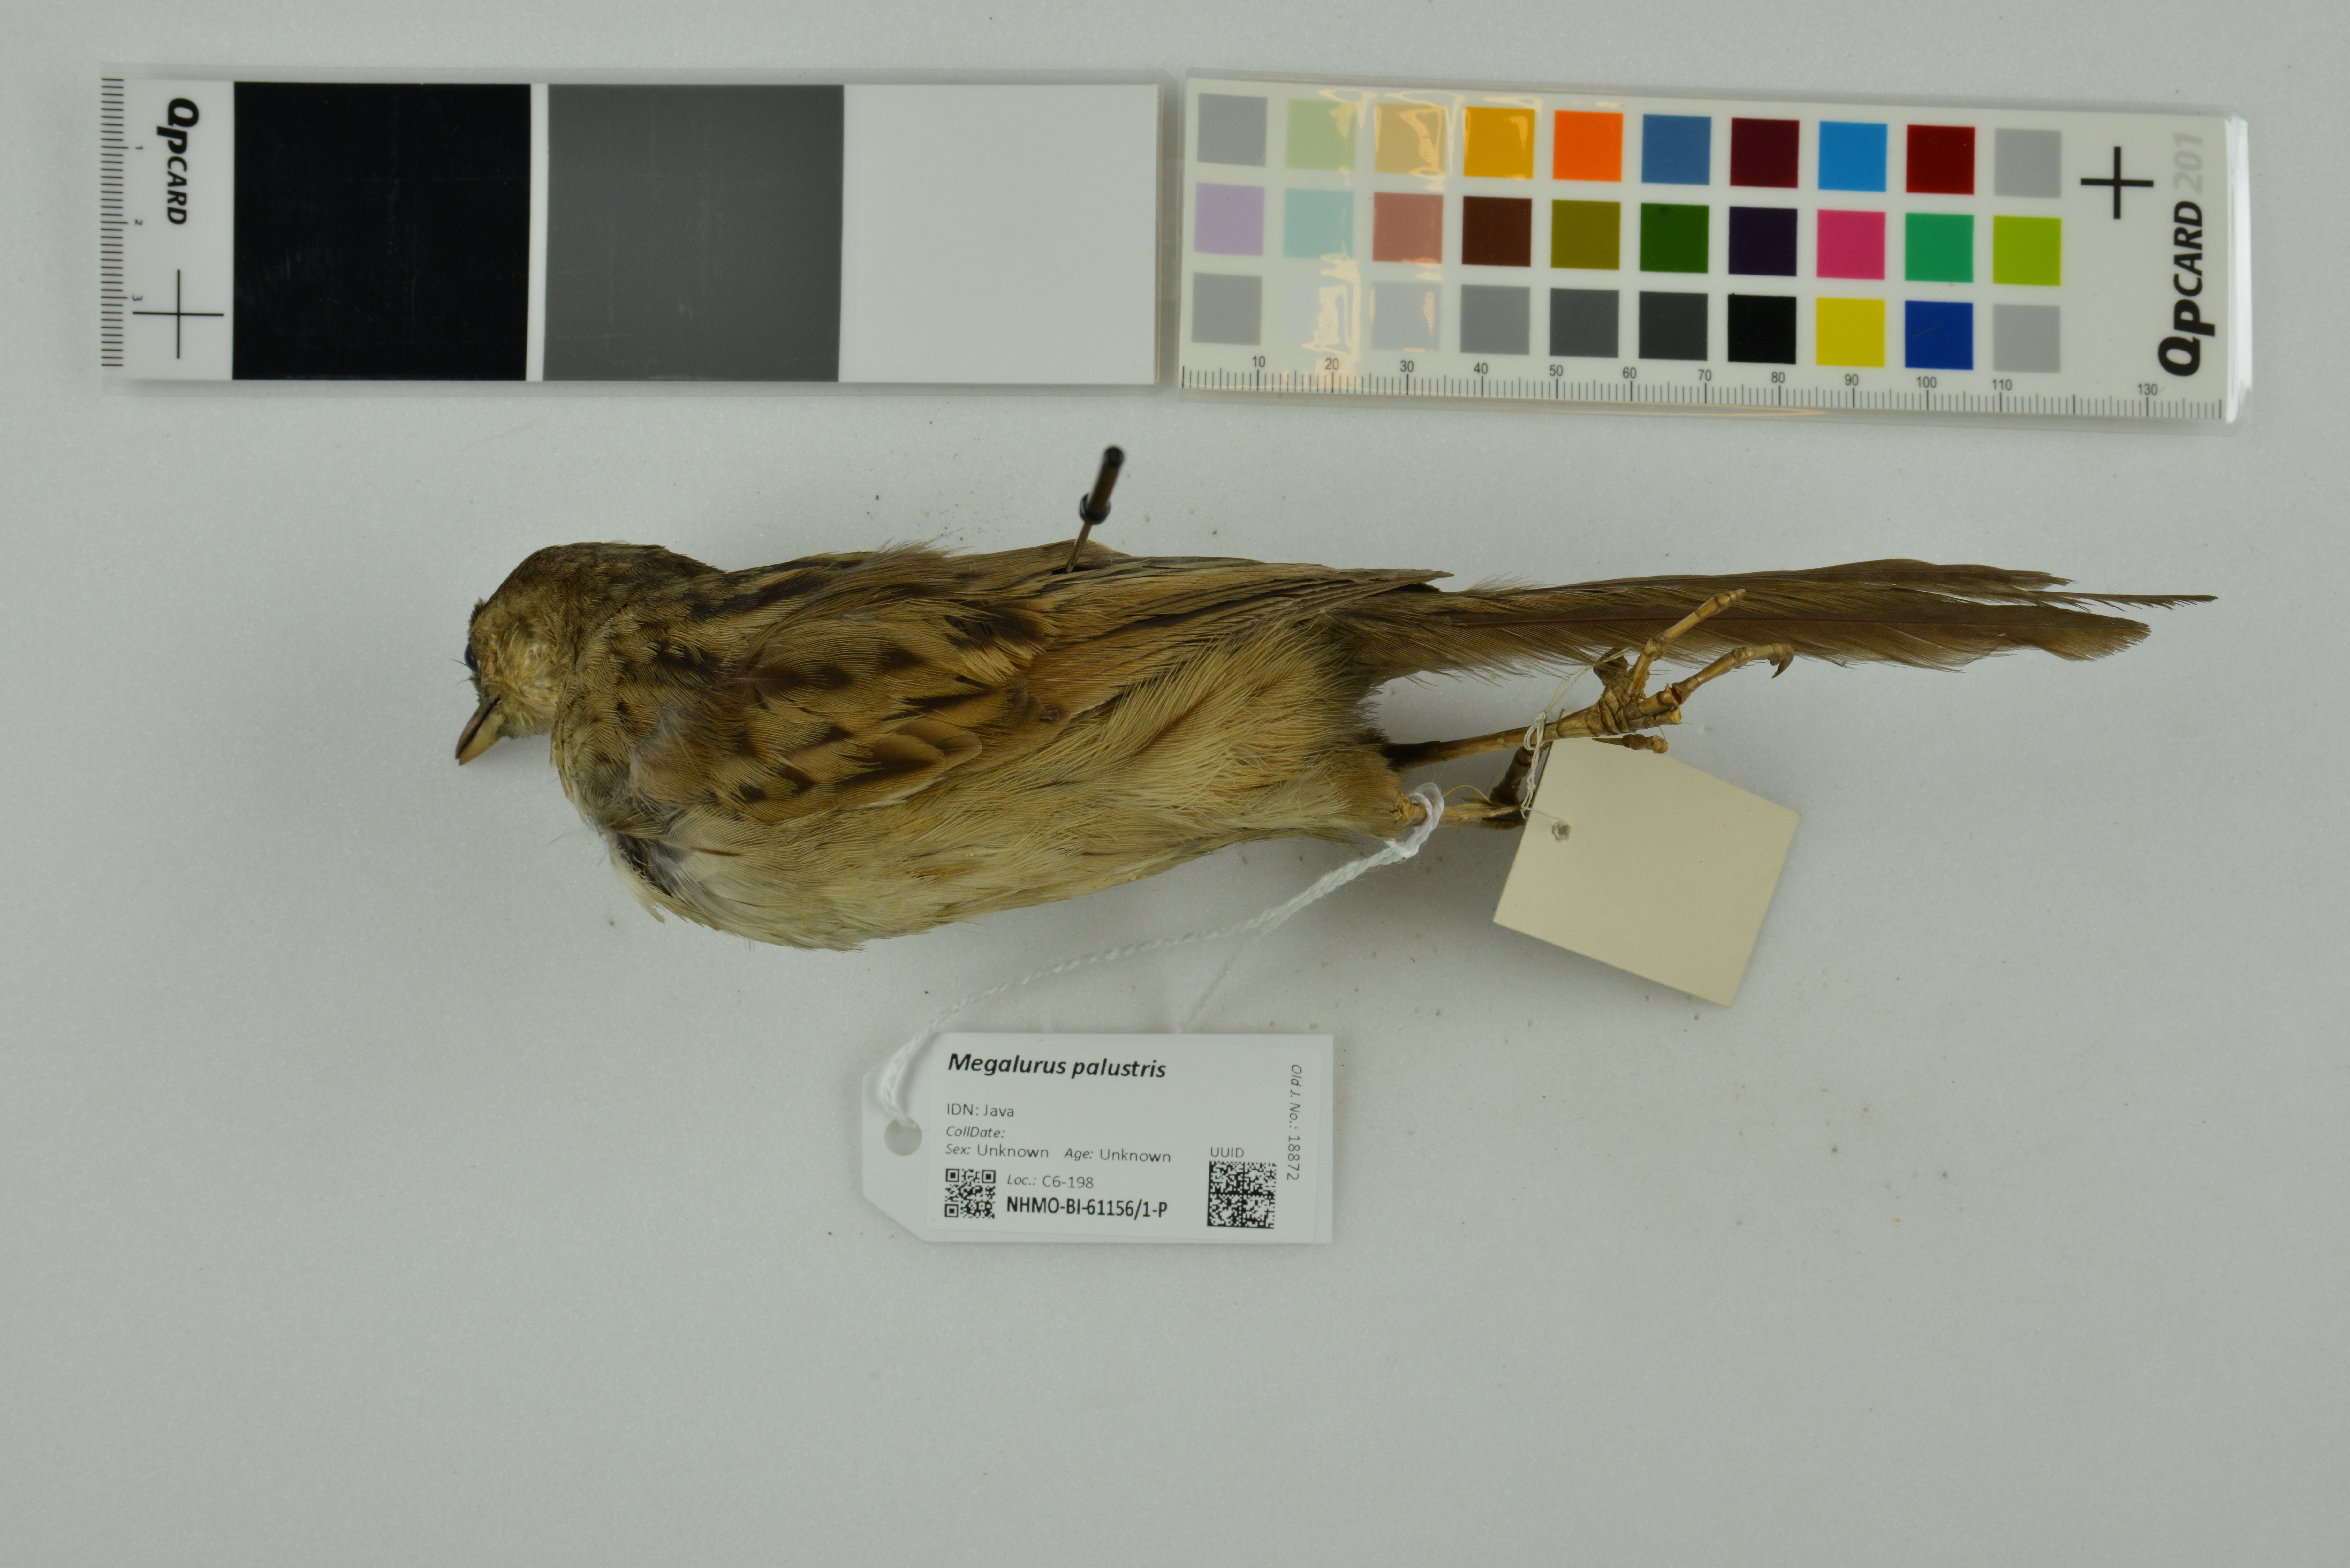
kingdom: Animalia
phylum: Chordata
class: Aves
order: Passeriformes
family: Locustellidae
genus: Megalurus
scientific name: Megalurus palustris
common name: Striated grassbird
